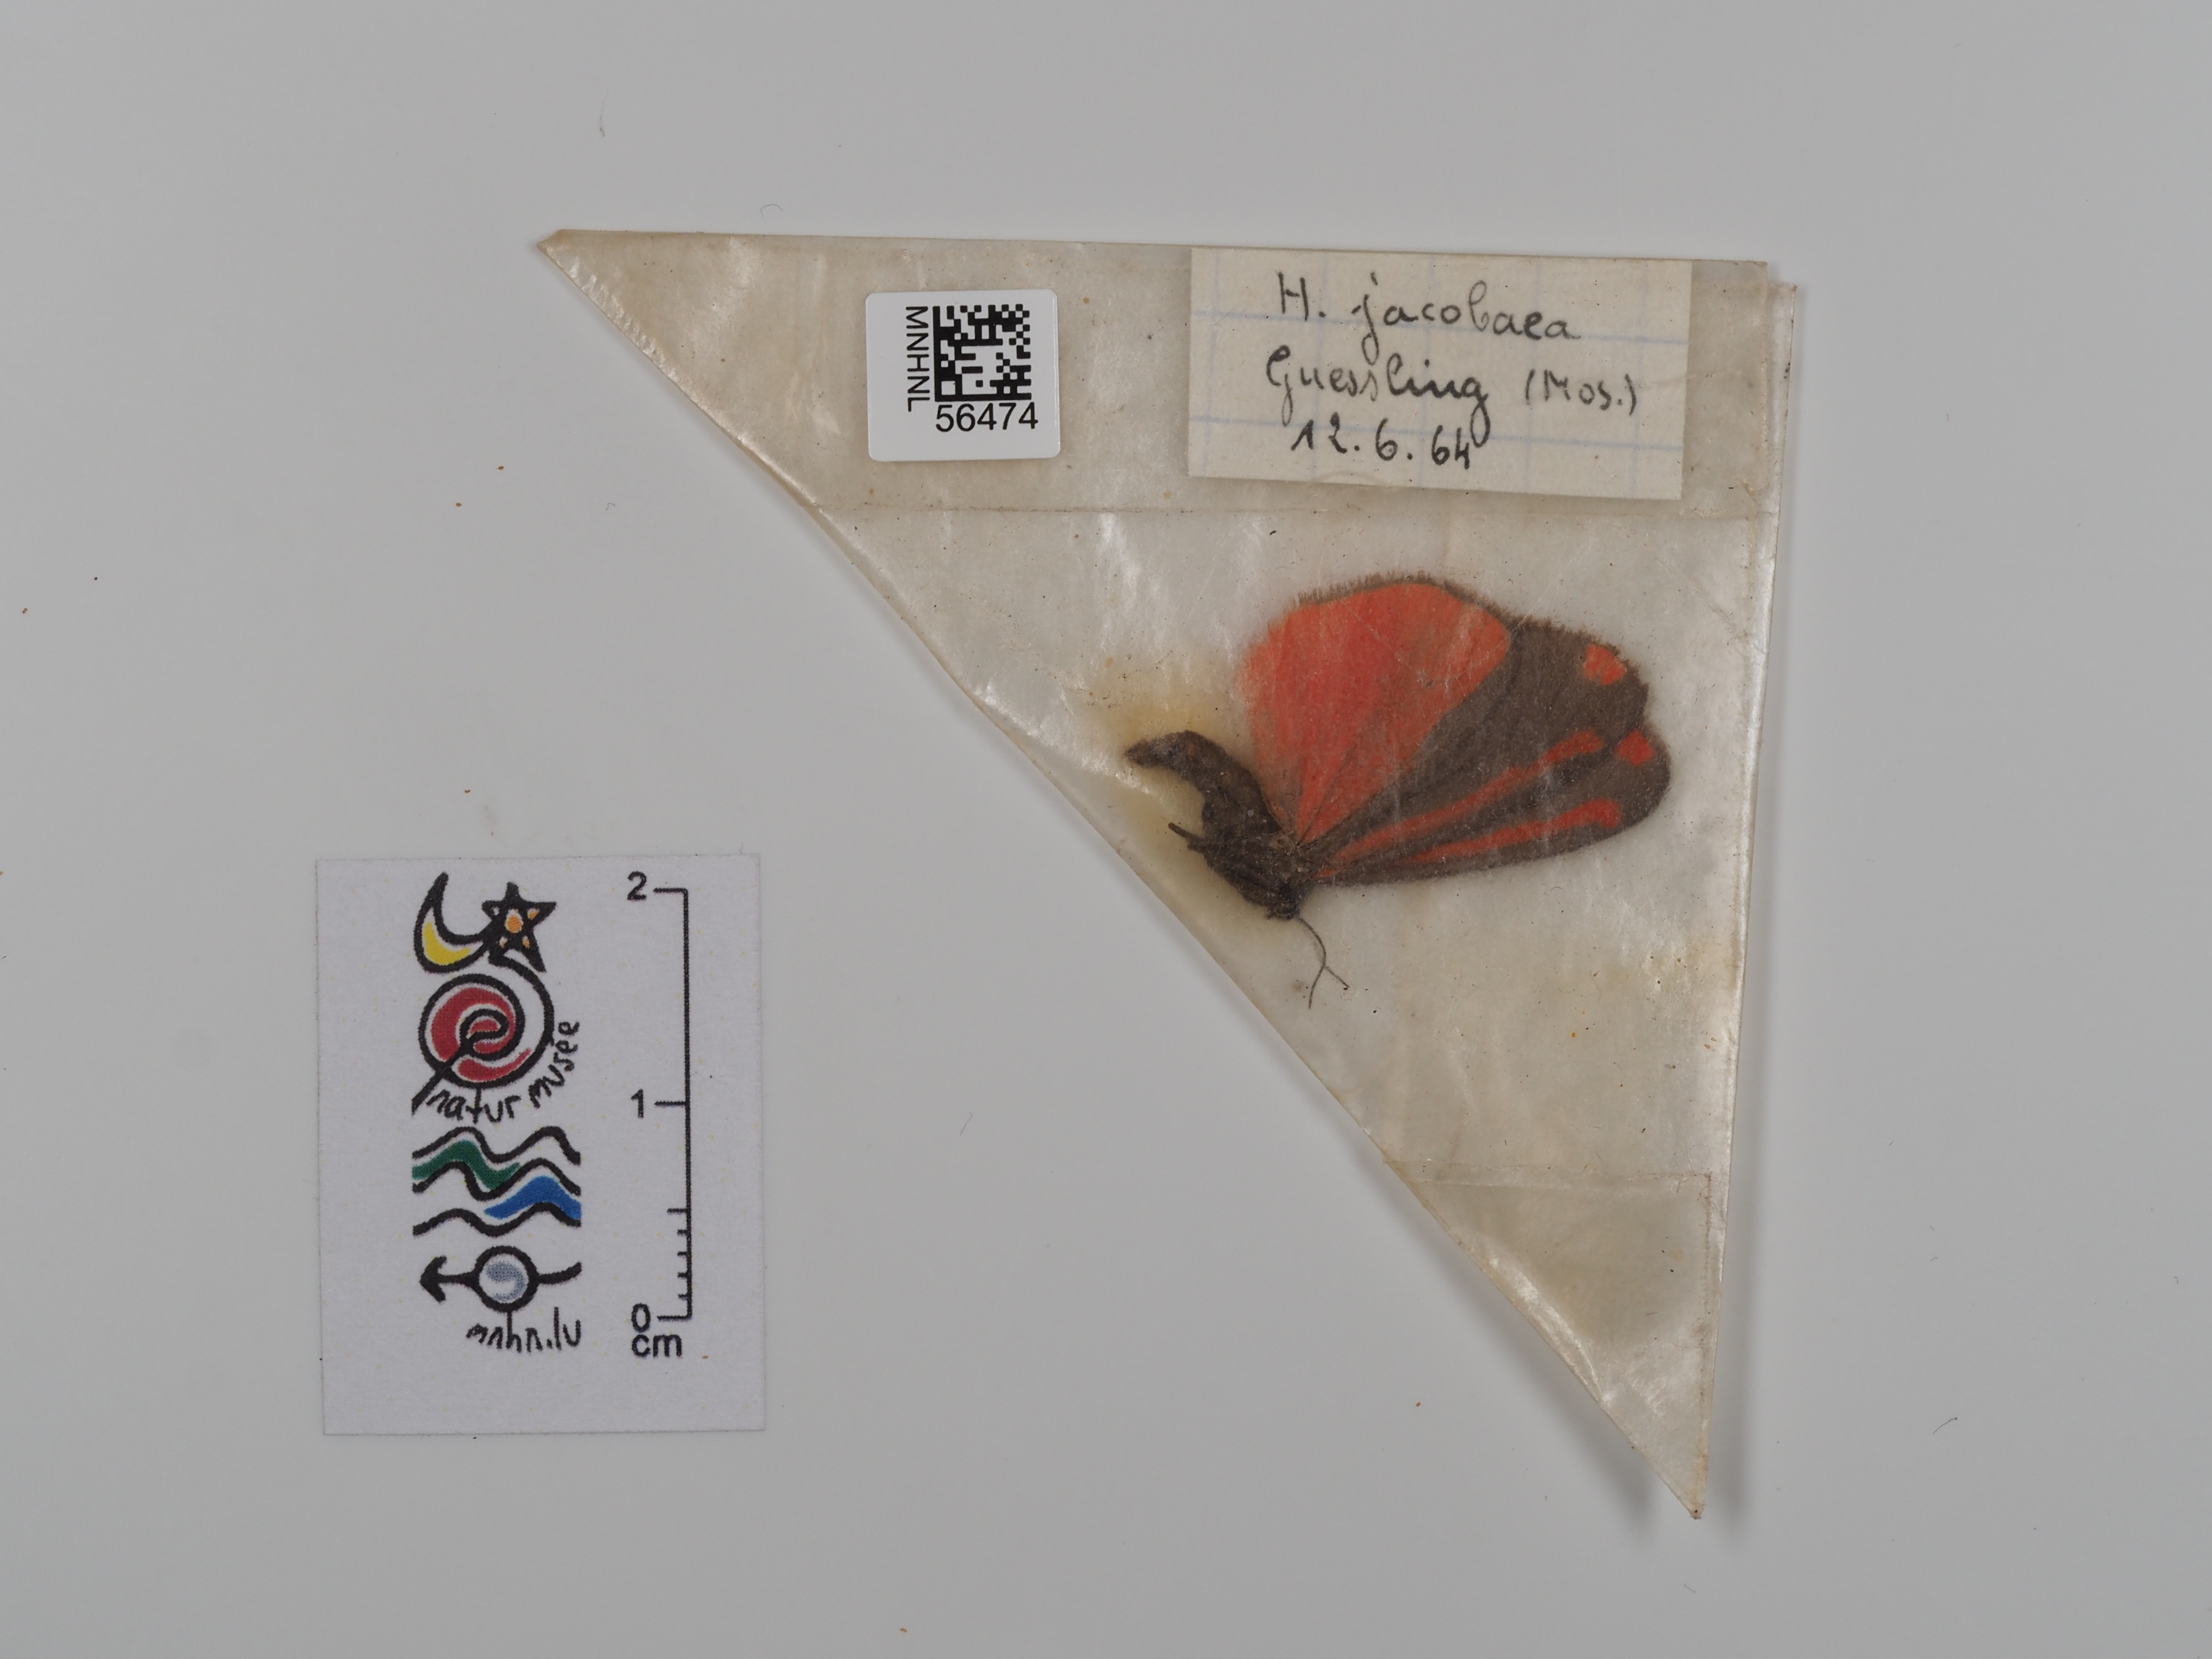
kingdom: Animalia
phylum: Arthropoda
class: Insecta
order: Lepidoptera
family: Erebidae
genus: Tyria
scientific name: Tyria jacobaeae
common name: Cinnabar
